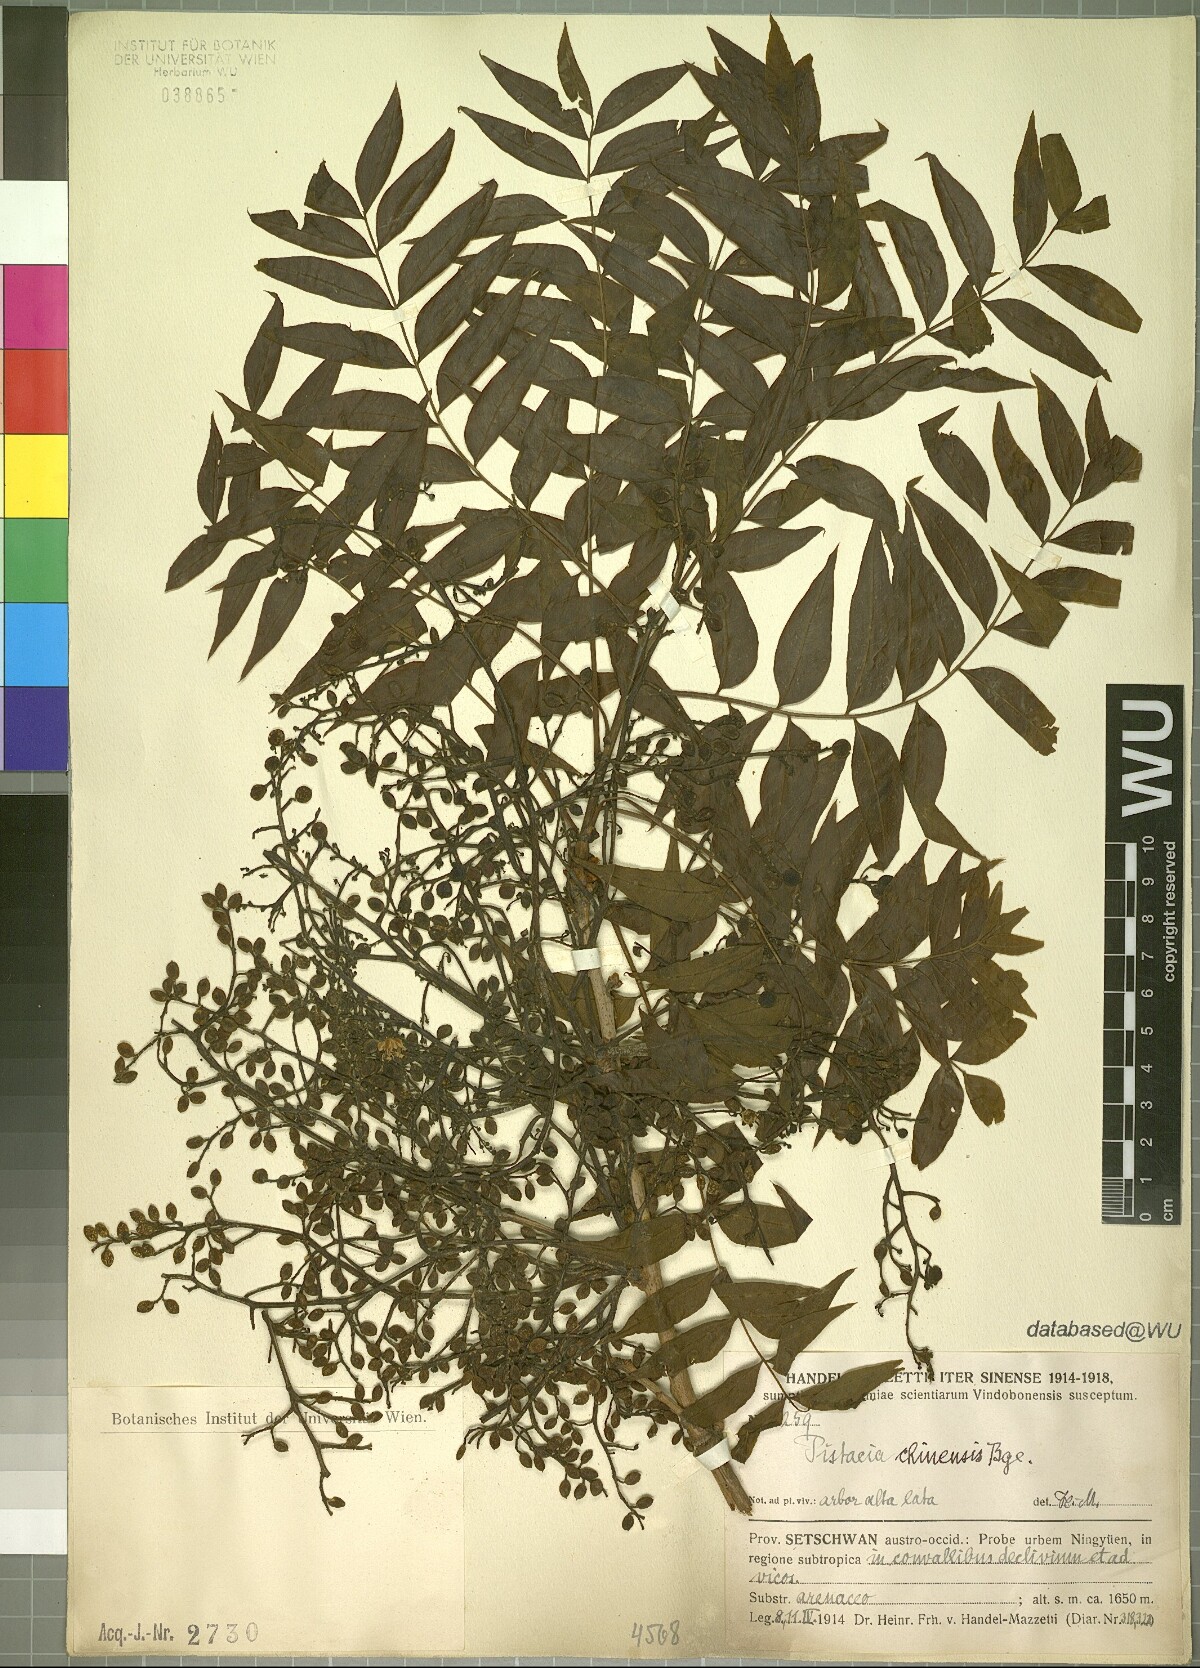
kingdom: Plantae
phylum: Tracheophyta
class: Magnoliopsida
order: Sapindales
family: Anacardiaceae
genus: Pistacia
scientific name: Pistacia chinensis
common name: Chinese pistache
